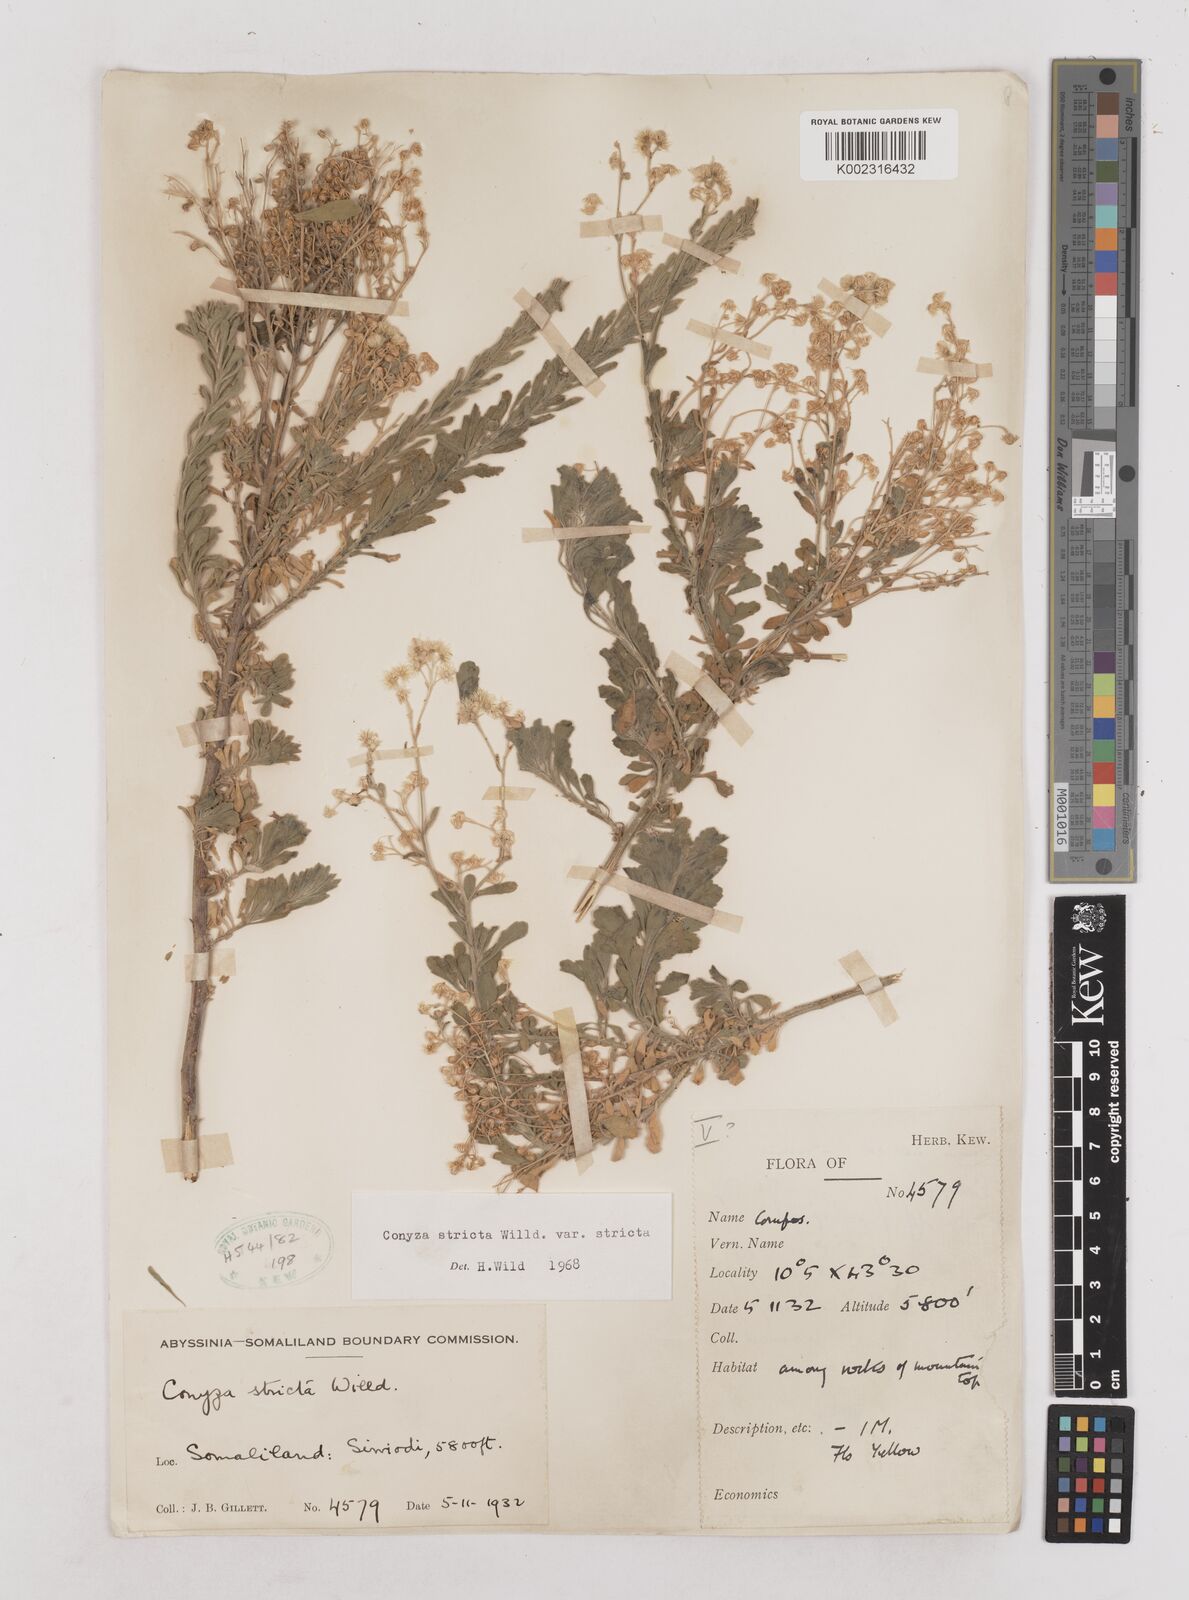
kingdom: Plantae
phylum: Tracheophyta
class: Magnoliopsida
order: Asterales
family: Asteraceae
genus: Nidorella
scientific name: Nidorella triloba
